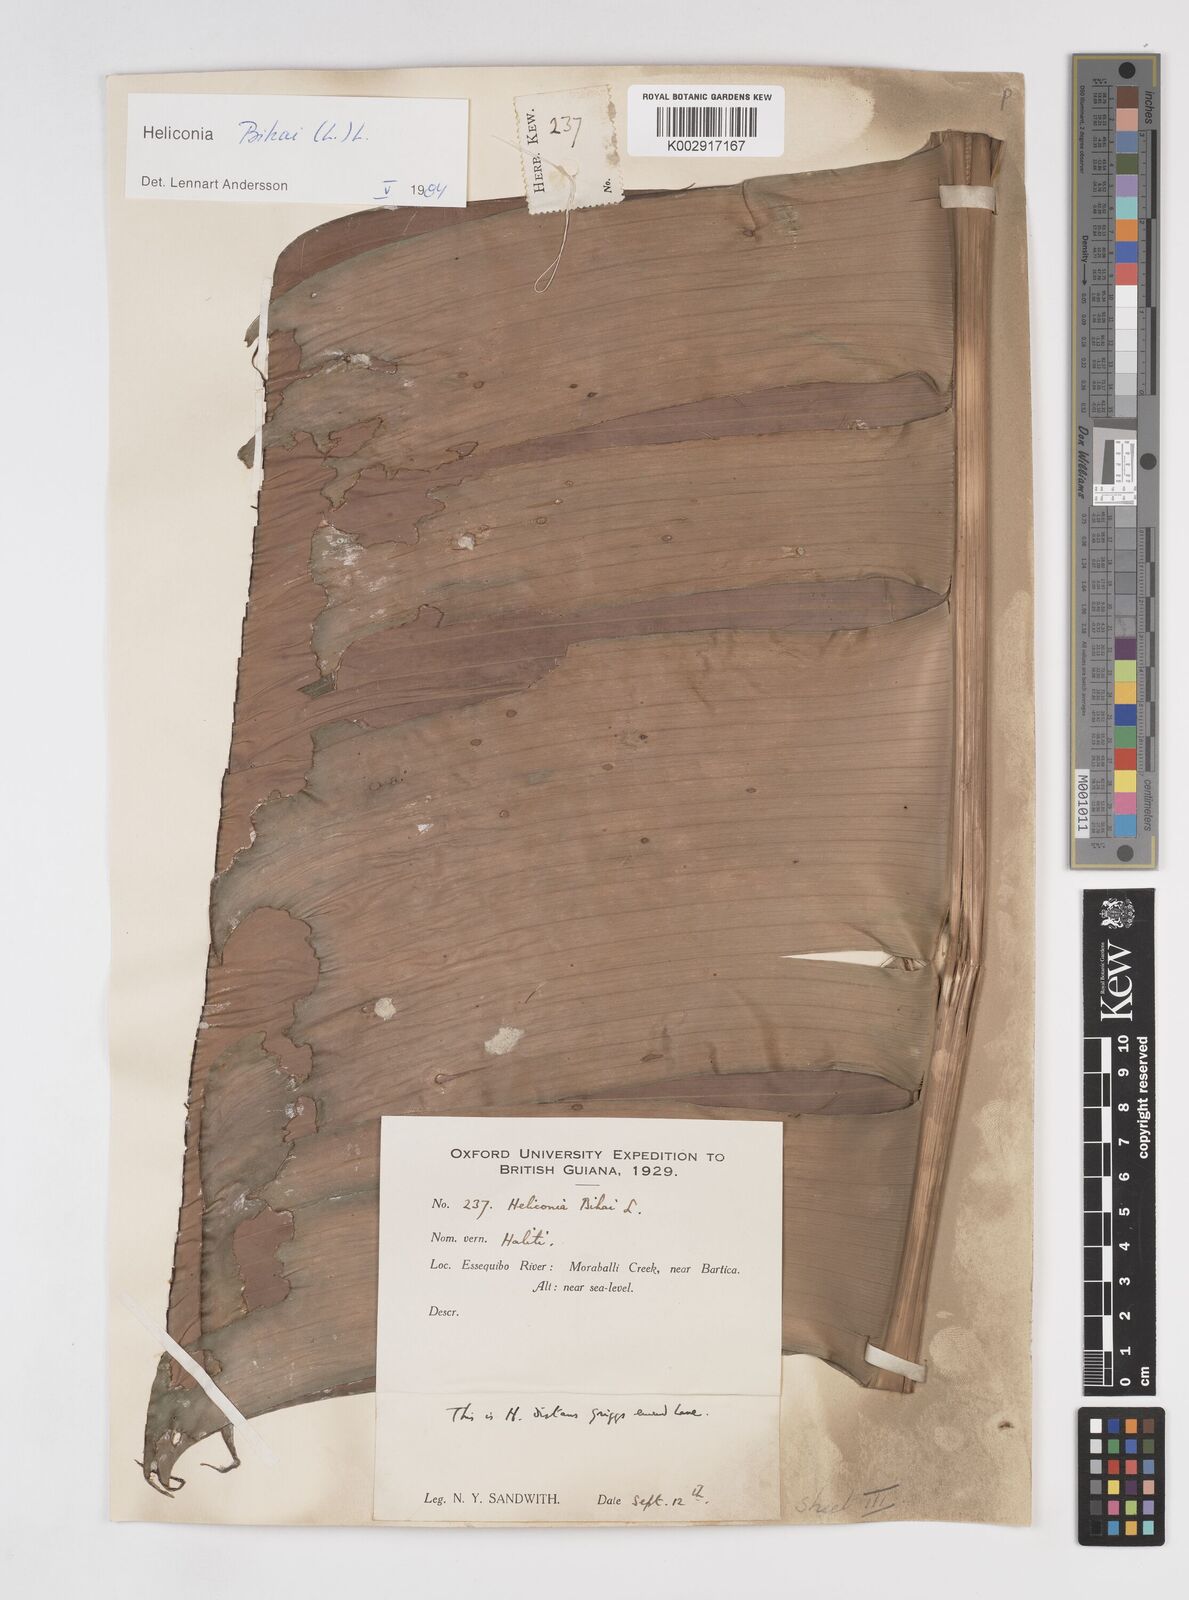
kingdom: Plantae
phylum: Tracheophyta
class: Liliopsida
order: Zingiberales
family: Heliconiaceae
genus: Heliconia
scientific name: Heliconia bihai
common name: Macaw flower
